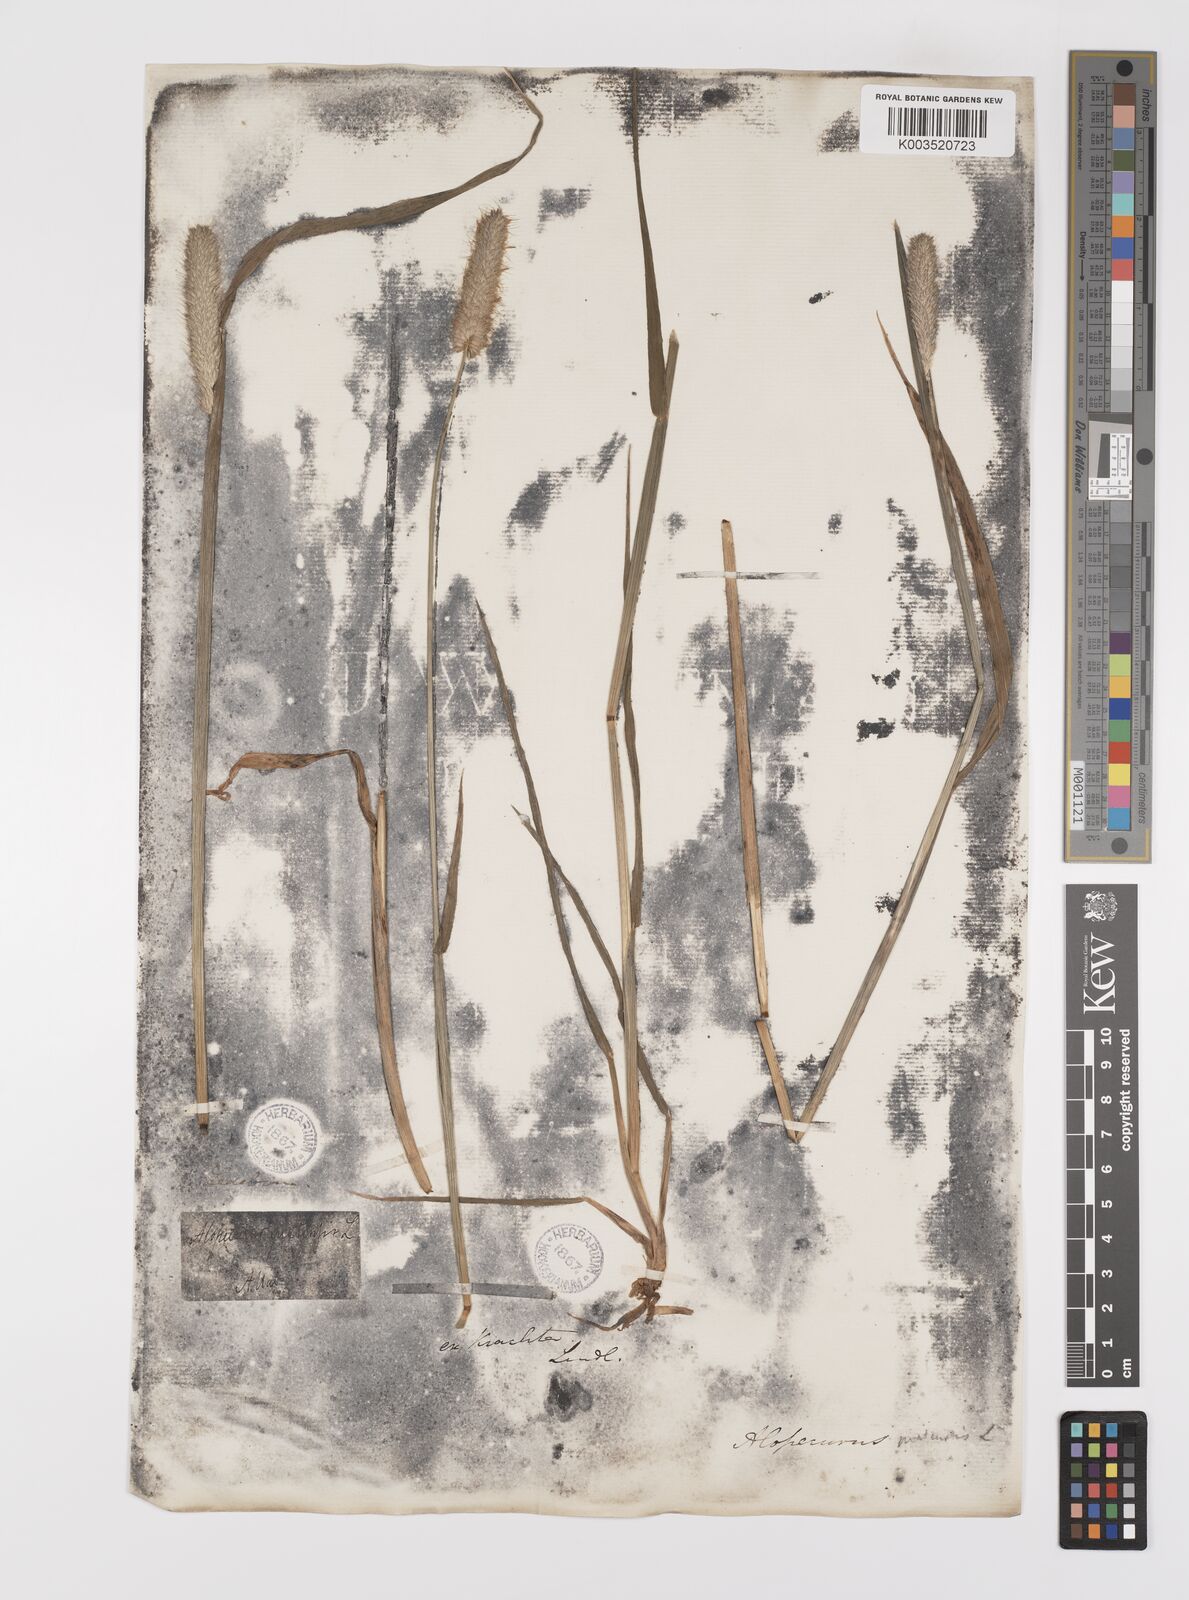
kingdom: Plantae
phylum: Tracheophyta
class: Liliopsida
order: Poales
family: Poaceae
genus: Alopecurus
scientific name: Alopecurus pratensis
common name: Meadow foxtail
